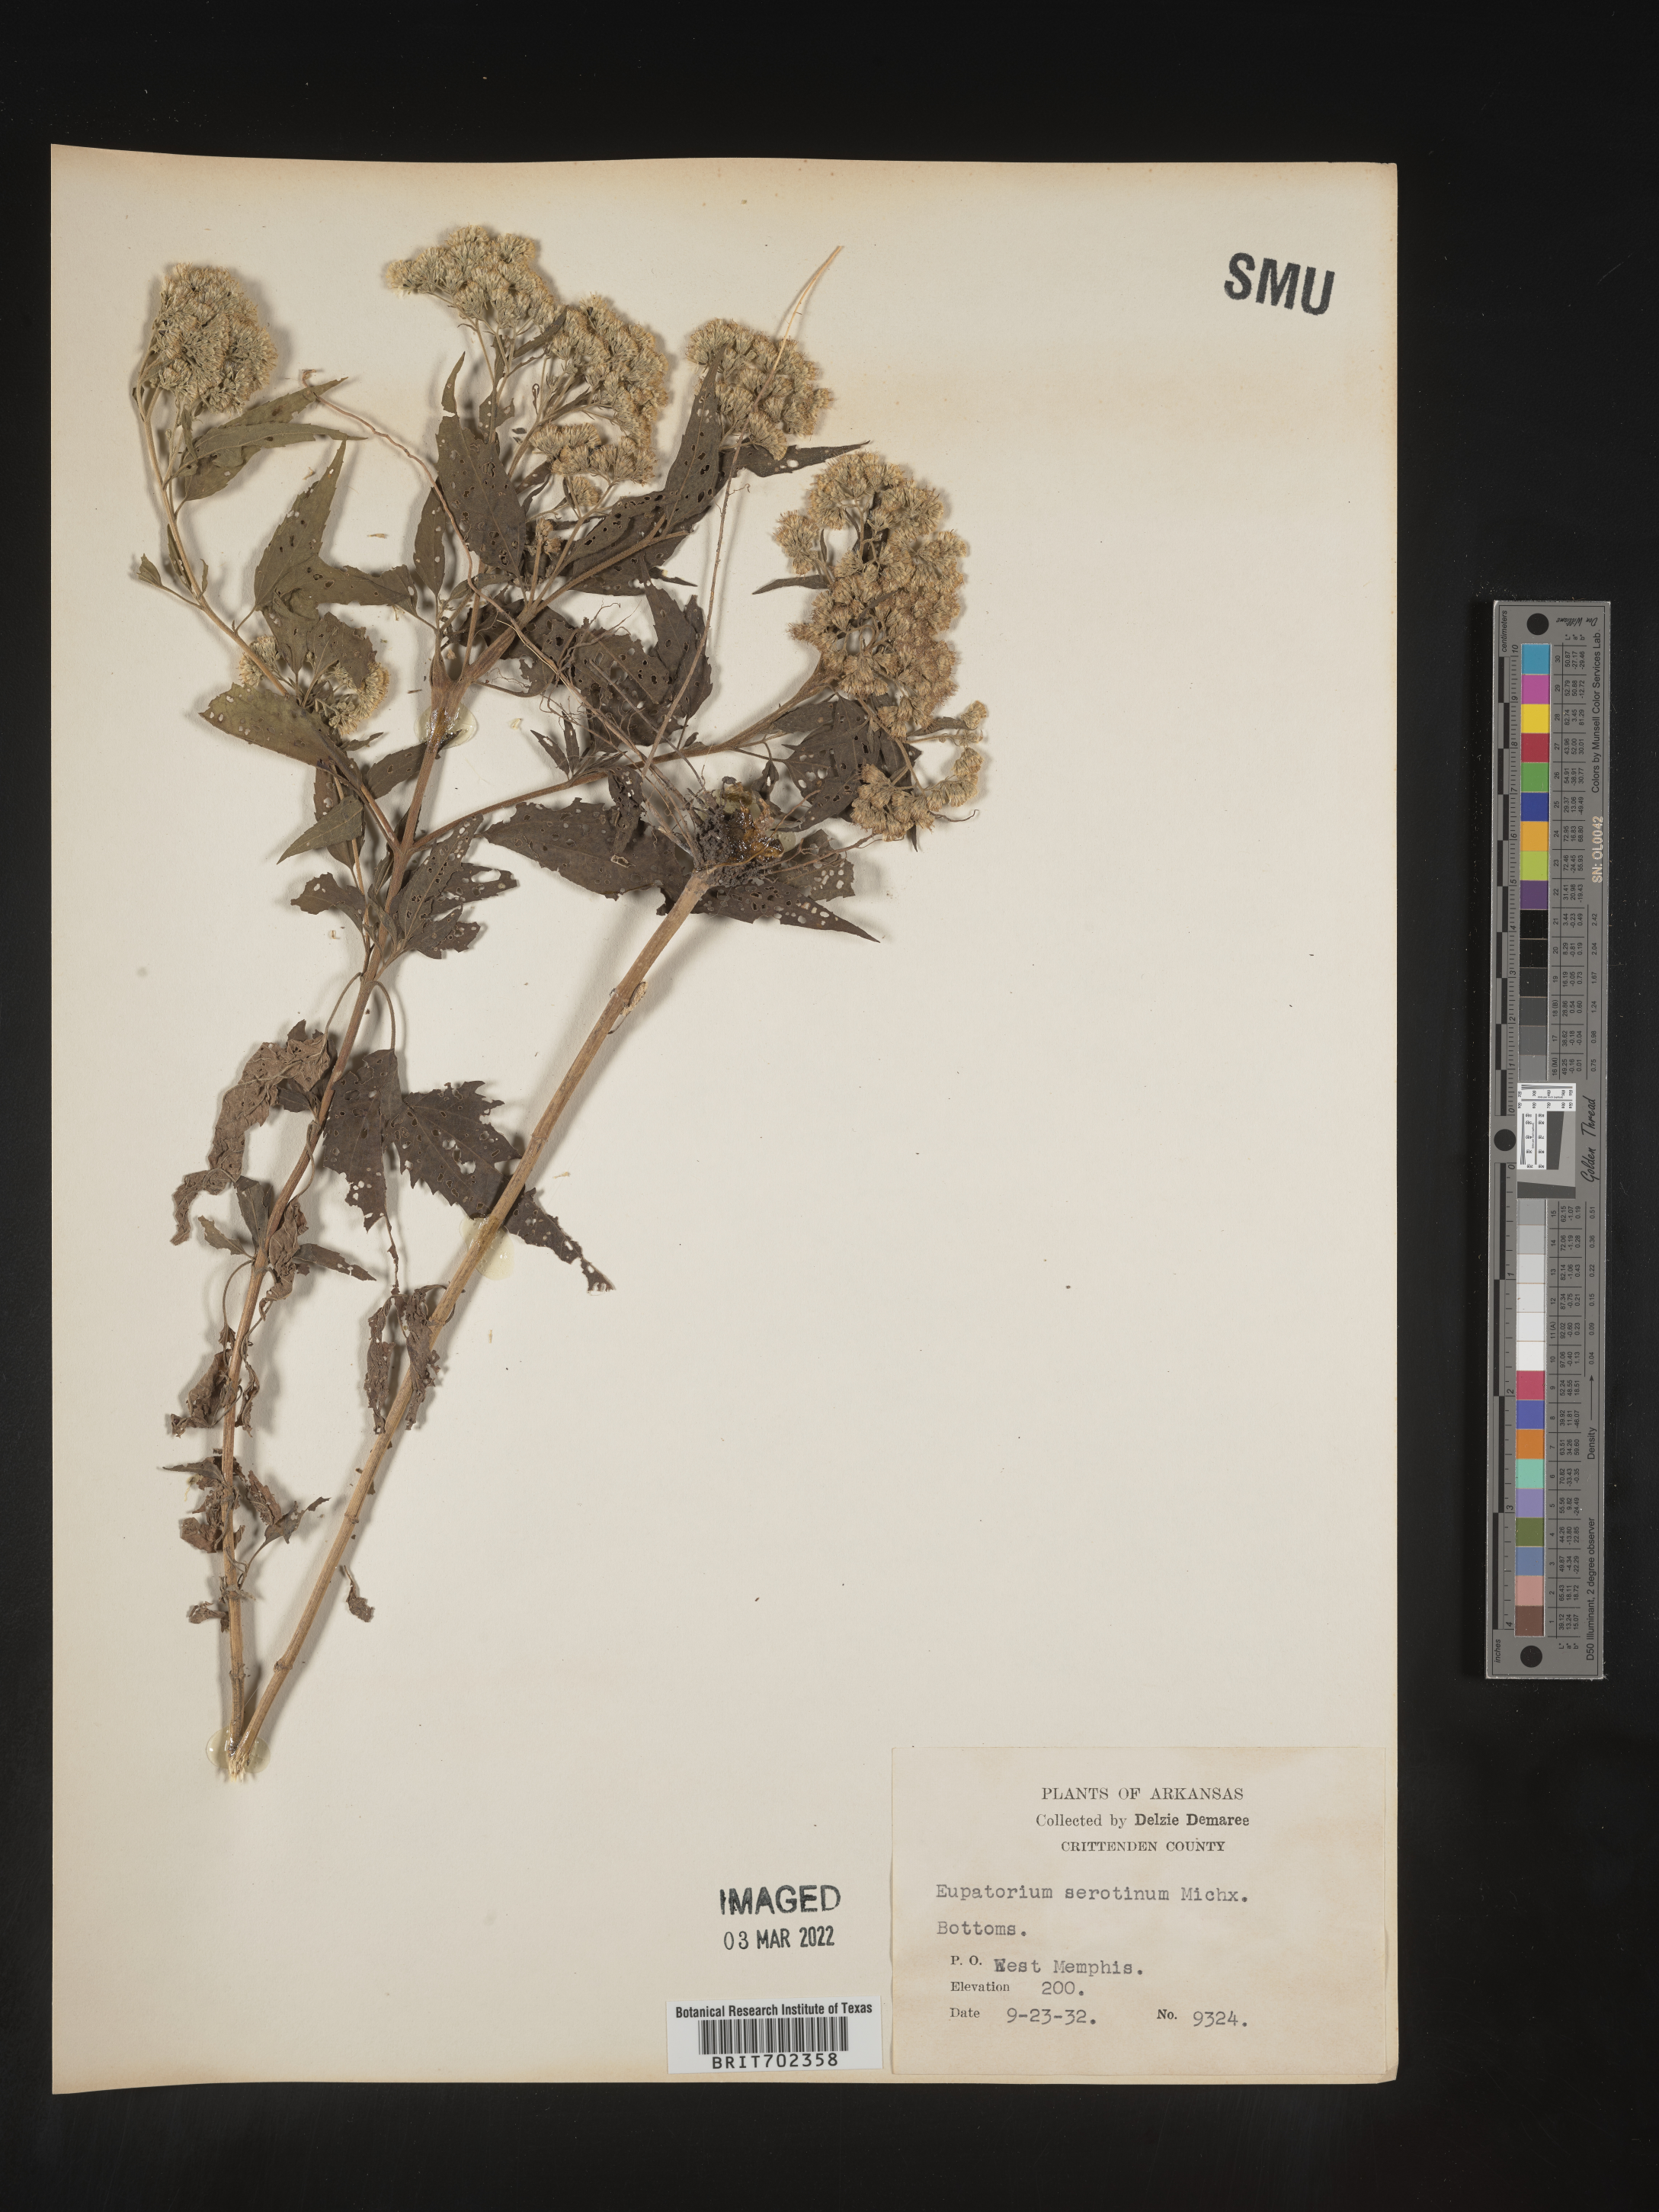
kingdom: Plantae
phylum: Tracheophyta
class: Magnoliopsida
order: Asterales
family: Asteraceae
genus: Eupatorium
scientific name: Eupatorium serotinum
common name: Late boneset
